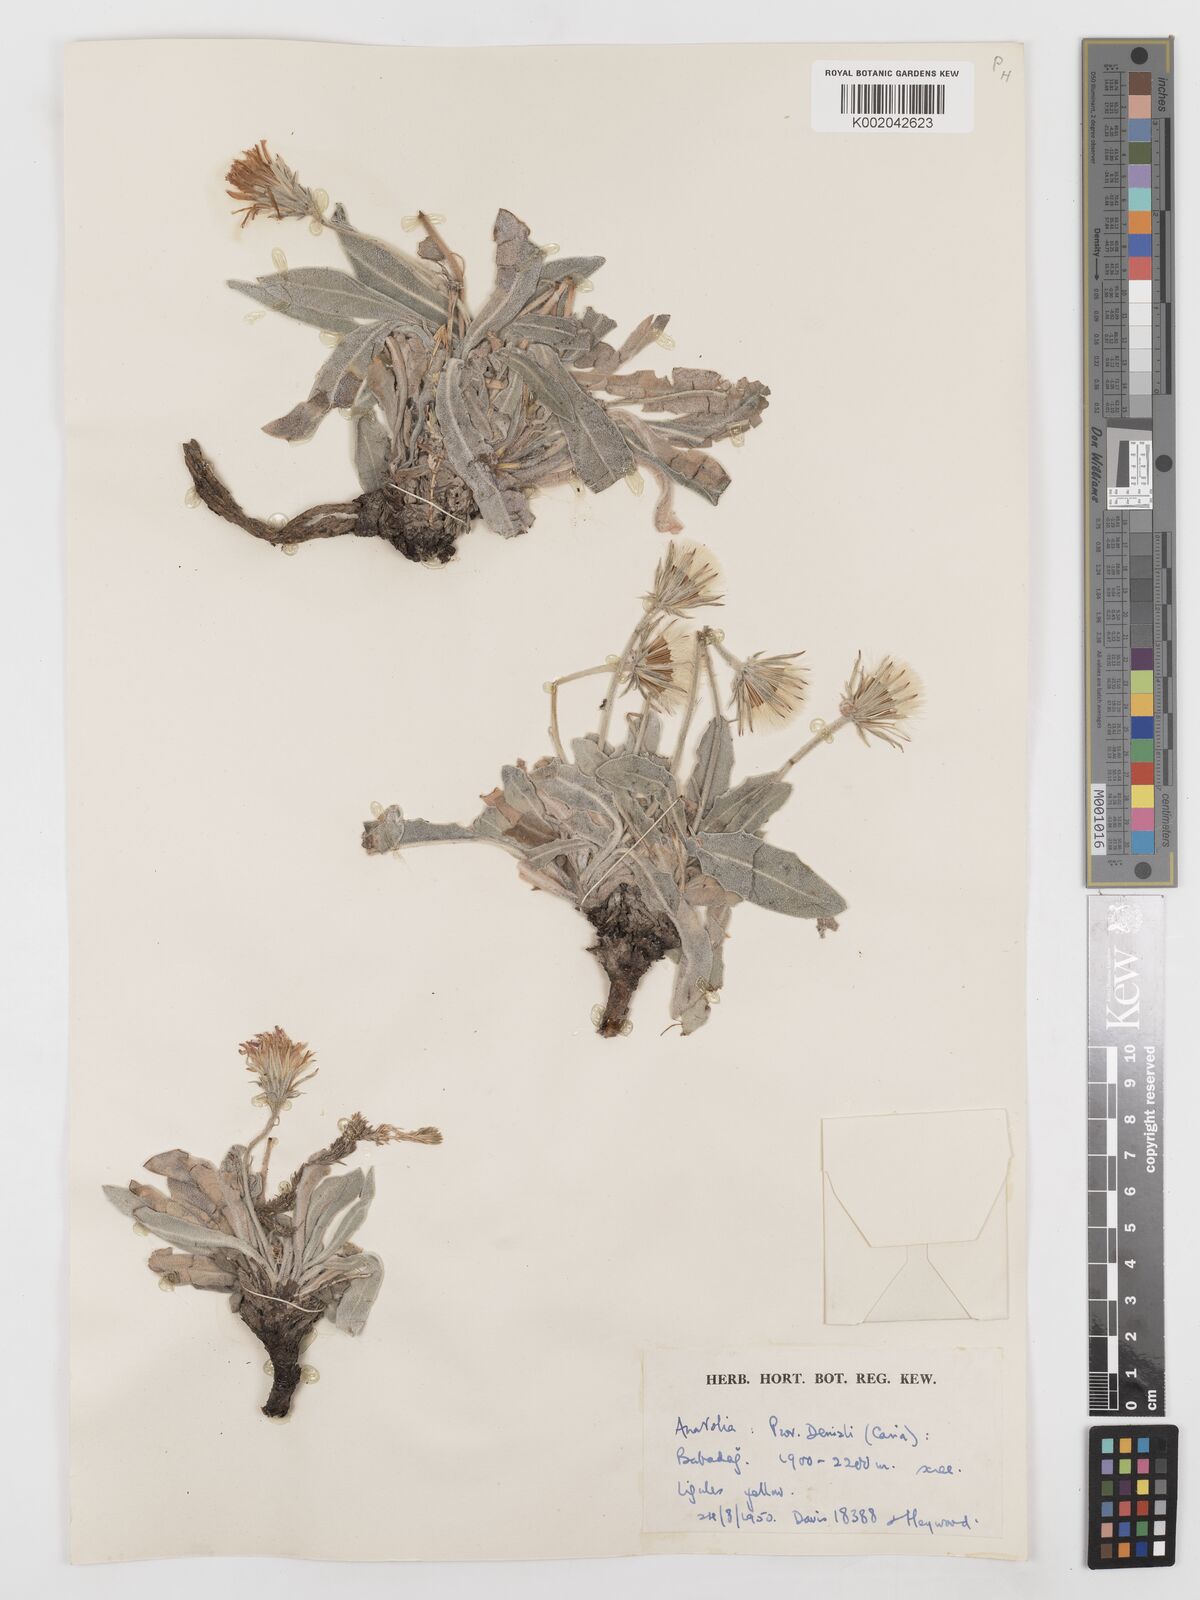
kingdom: Plantae
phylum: Tracheophyta
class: Magnoliopsida
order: Asterales
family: Asteraceae
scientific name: Asteraceae
